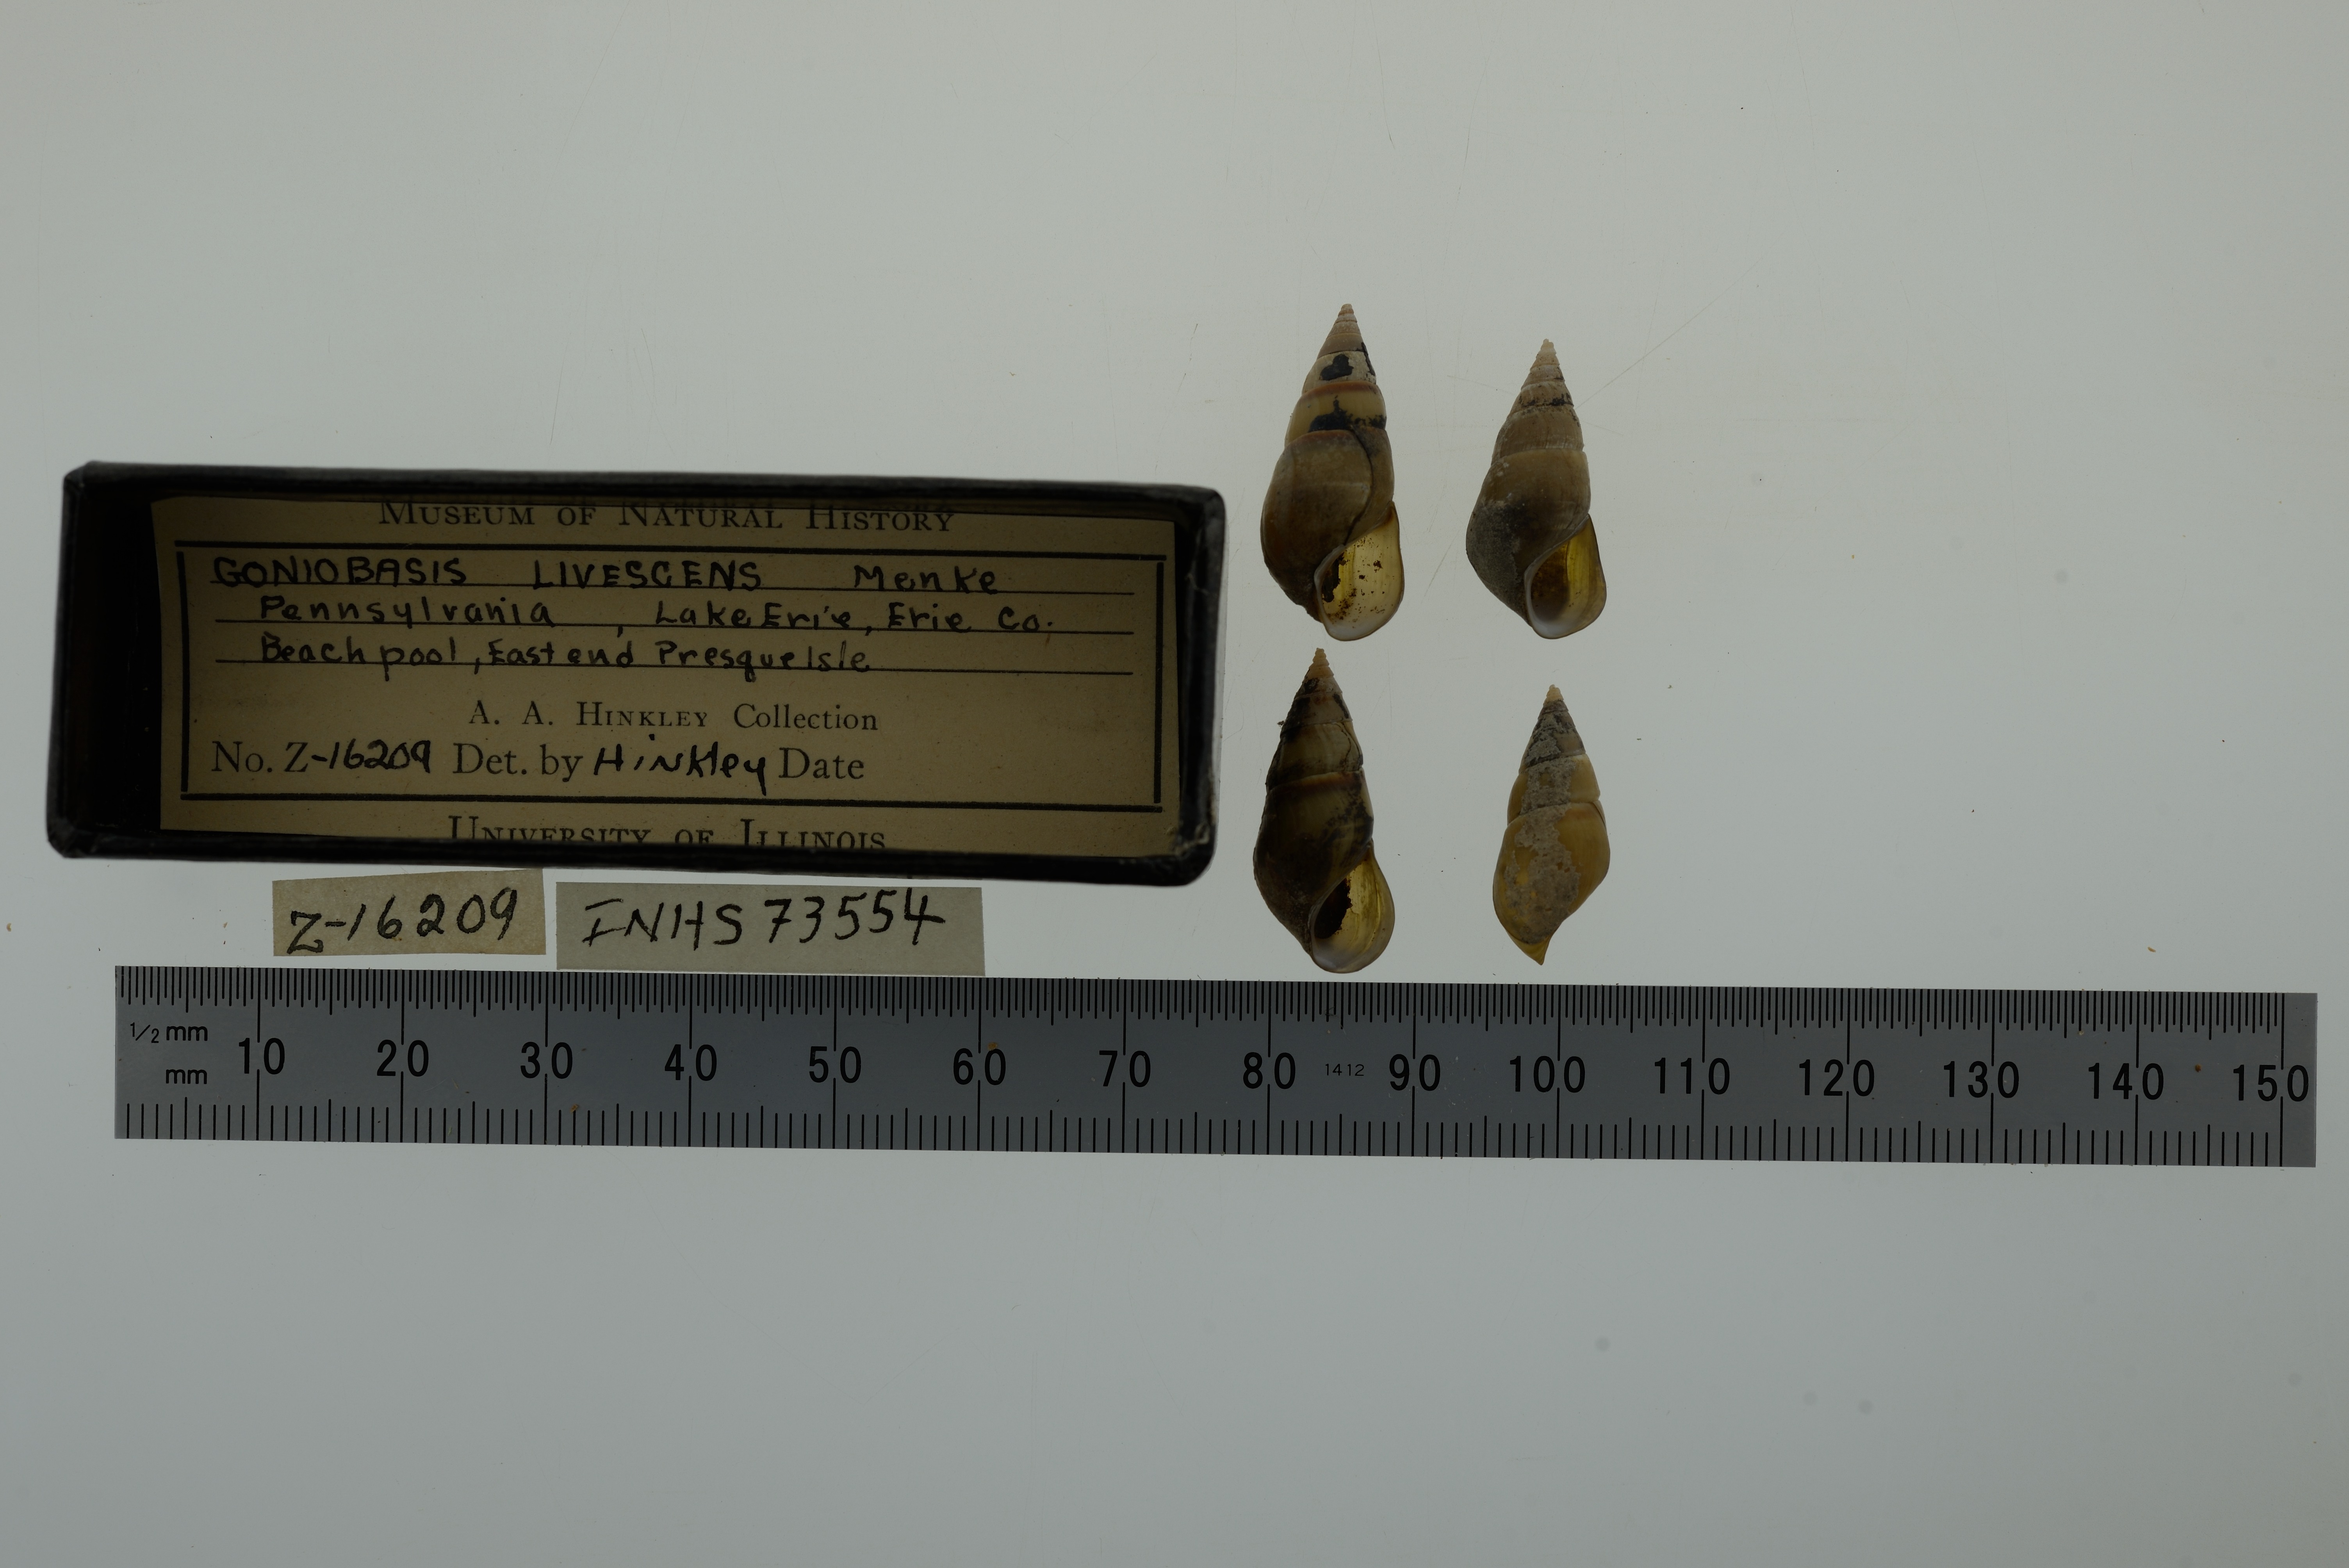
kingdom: Animalia
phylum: Mollusca
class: Gastropoda
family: Pleuroceridae
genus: Elimia
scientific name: Elimia livescens
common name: Liver elimia
